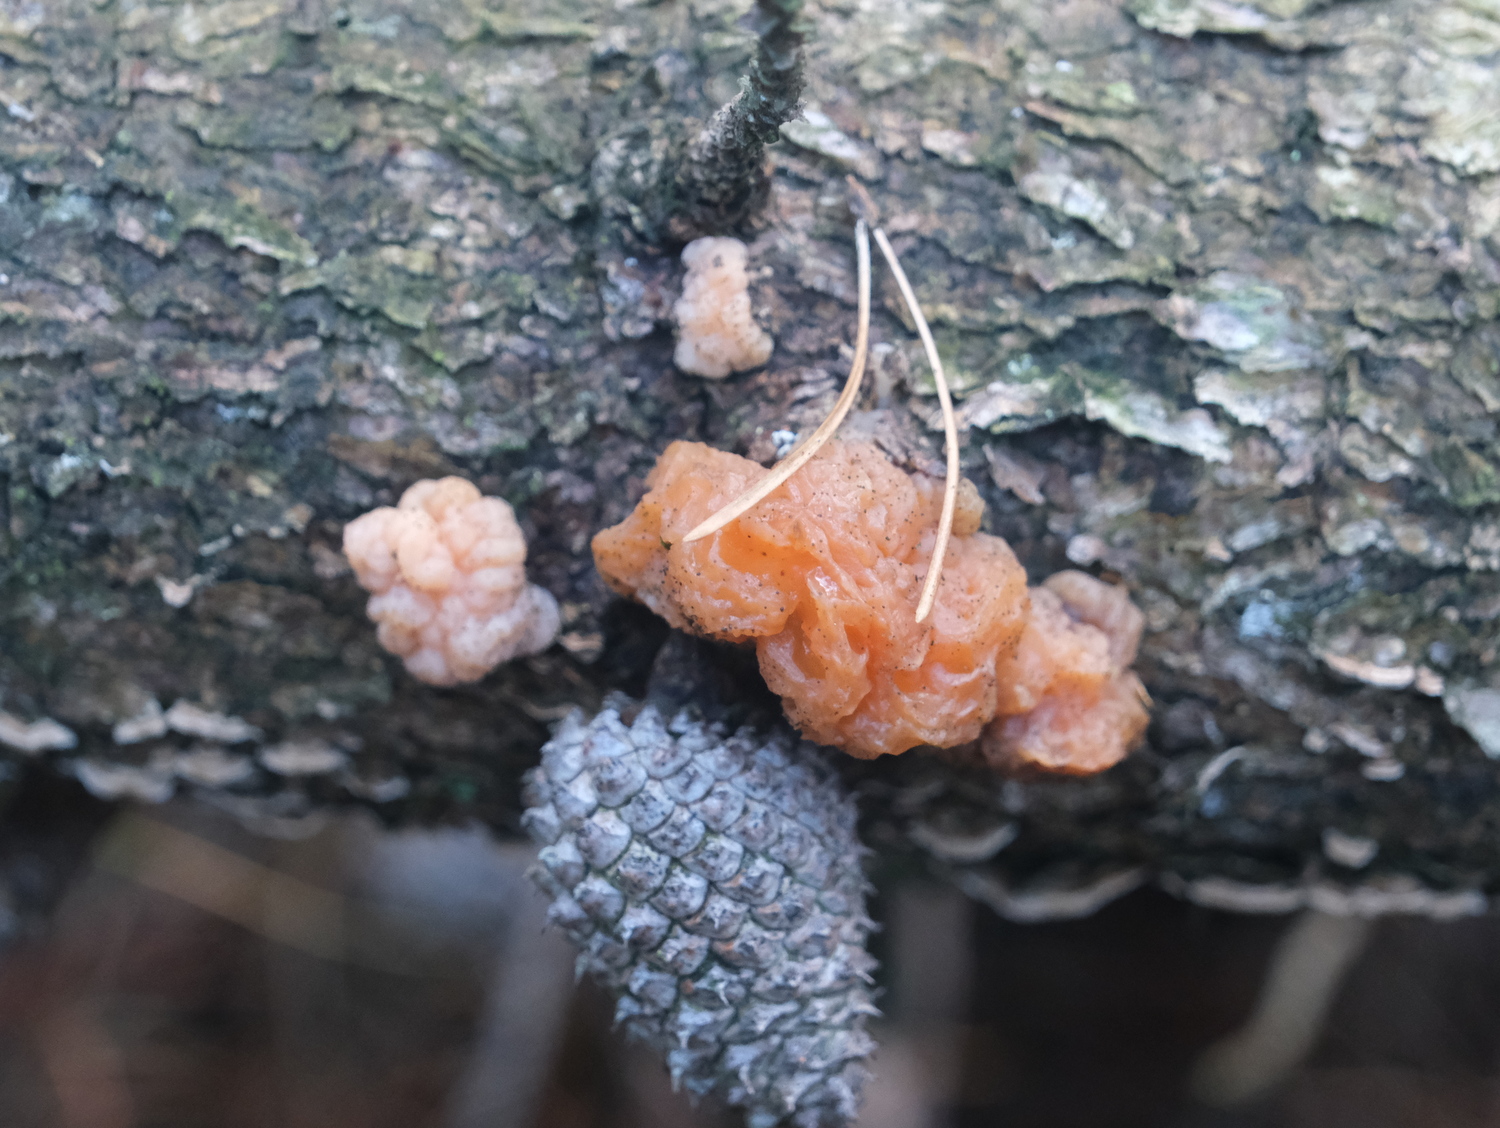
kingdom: Fungi
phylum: Basidiomycota
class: Tremellomycetes
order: Tremellales
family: Naemateliaceae
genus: Naematelia
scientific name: Naematelia encephala
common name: fyrre-bævresvamp
